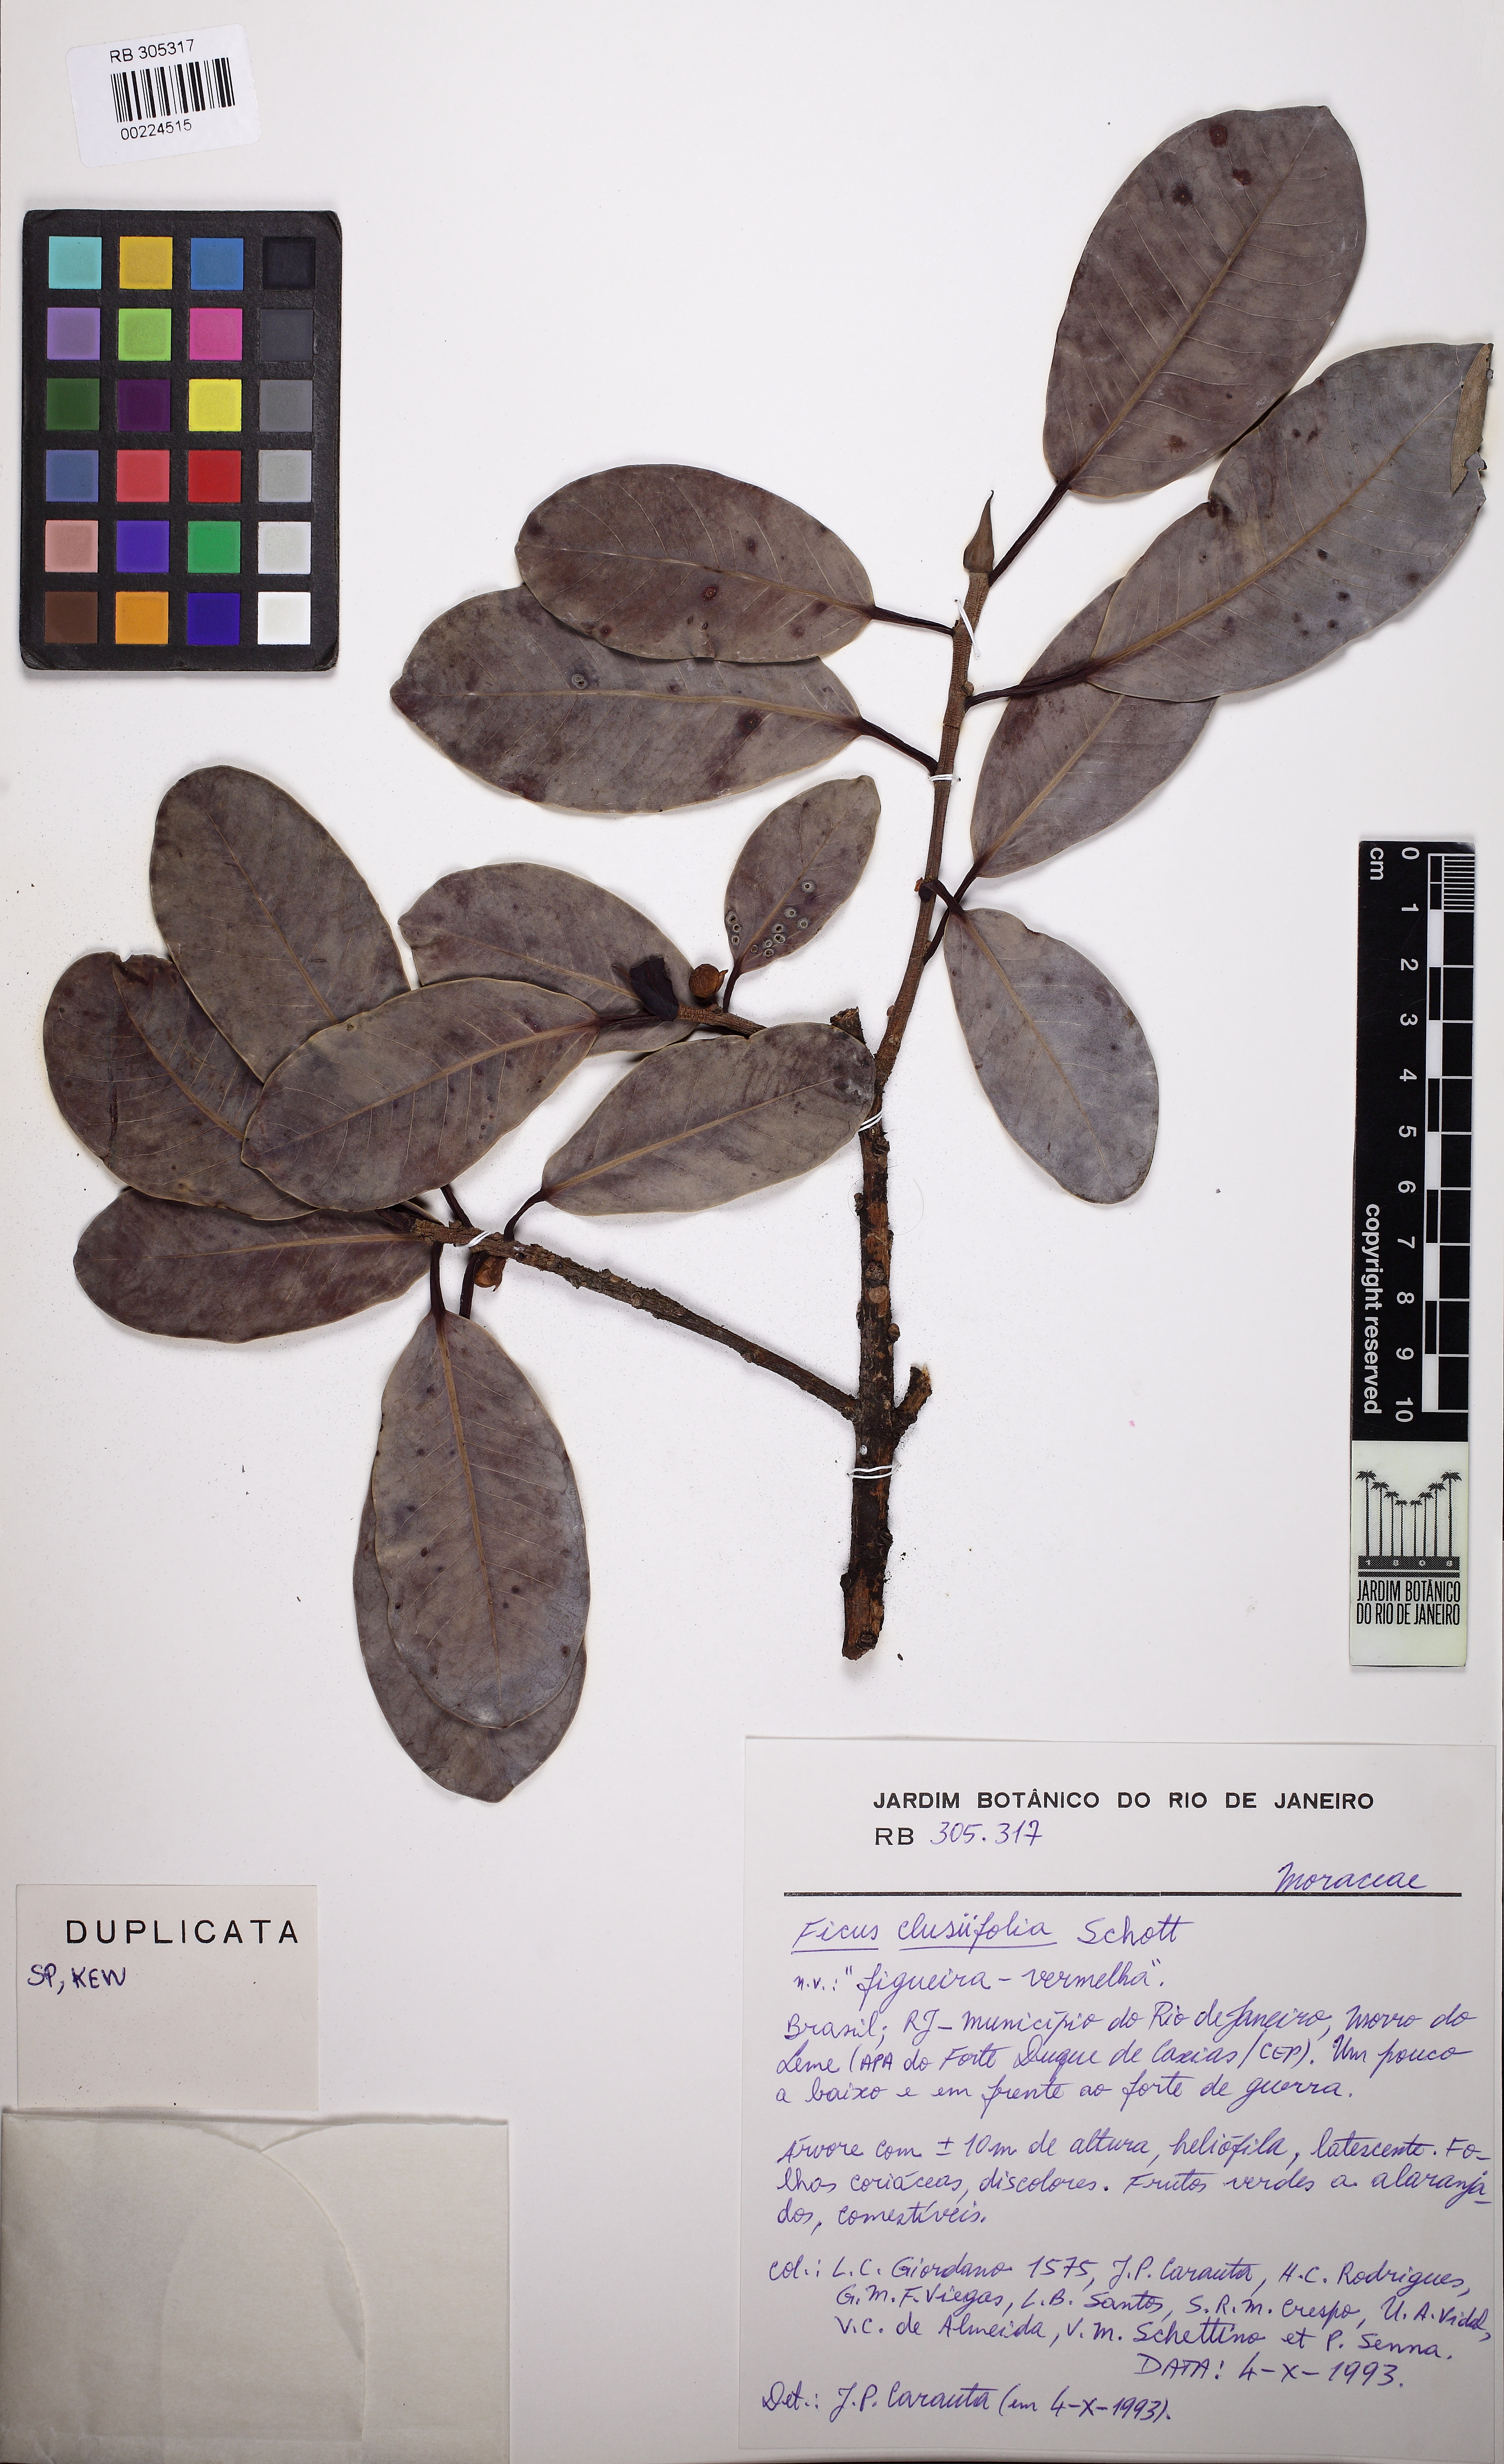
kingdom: Plantae
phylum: Tracheophyta
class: Magnoliopsida
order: Rosales
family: Moraceae
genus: Ficus
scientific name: Ficus americana
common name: Jamaican cherry fig
